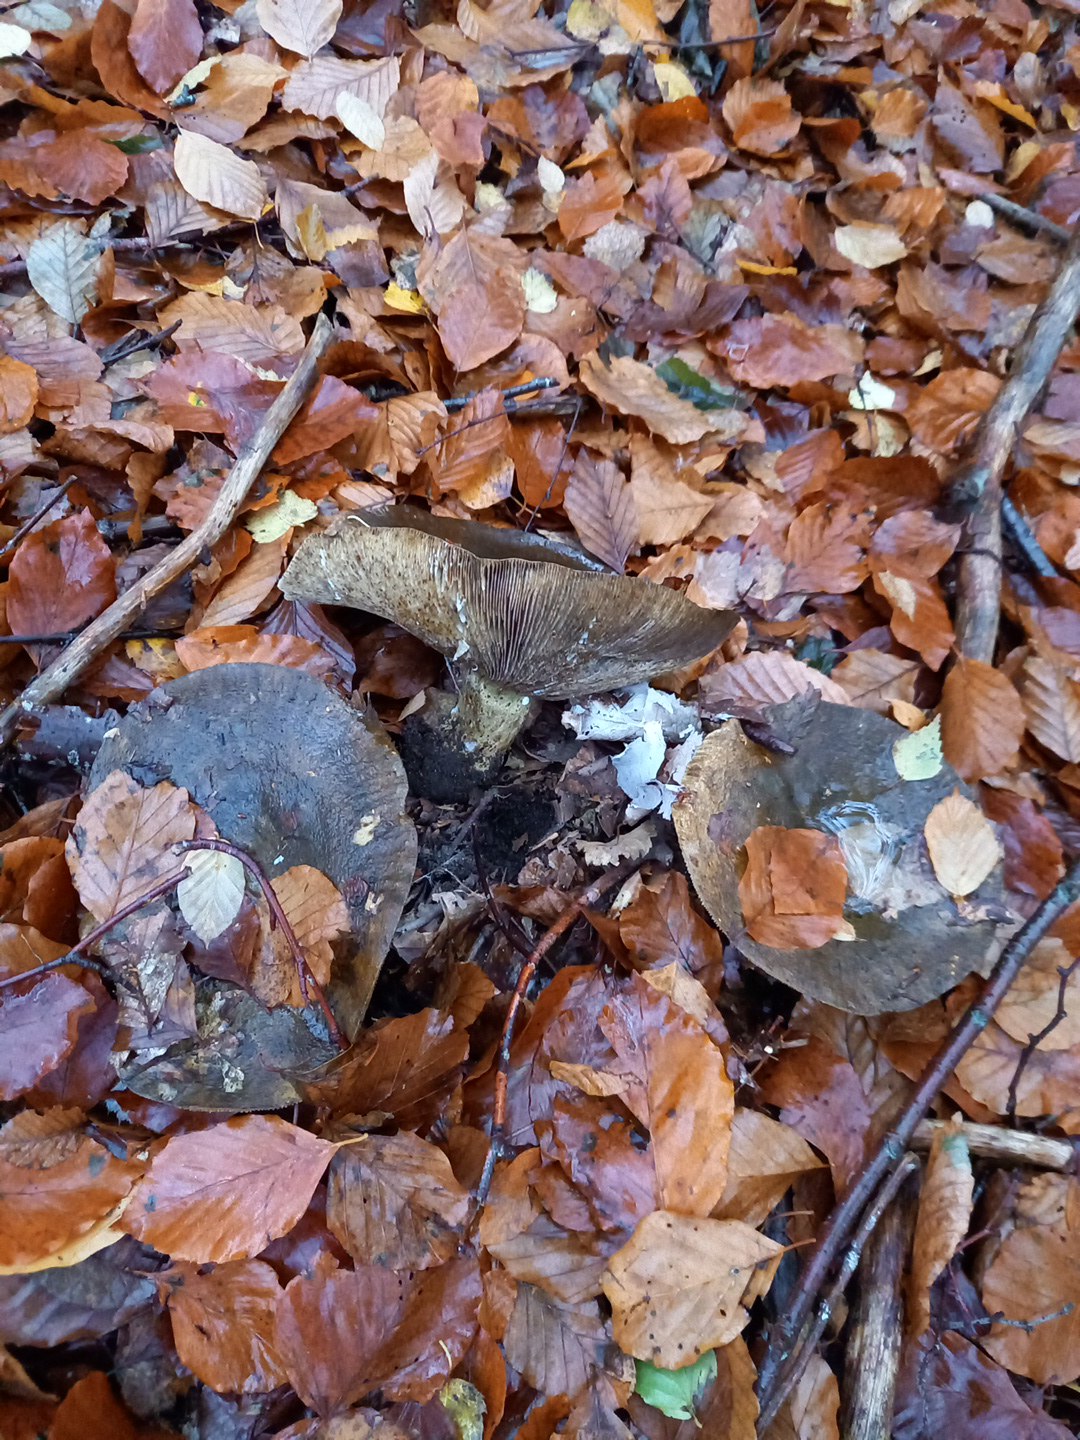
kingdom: Fungi
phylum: Basidiomycota
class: Agaricomycetes
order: Russulales
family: Russulaceae
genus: Lactarius
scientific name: Lactarius blennius
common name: dråbeplettet mælkehat
